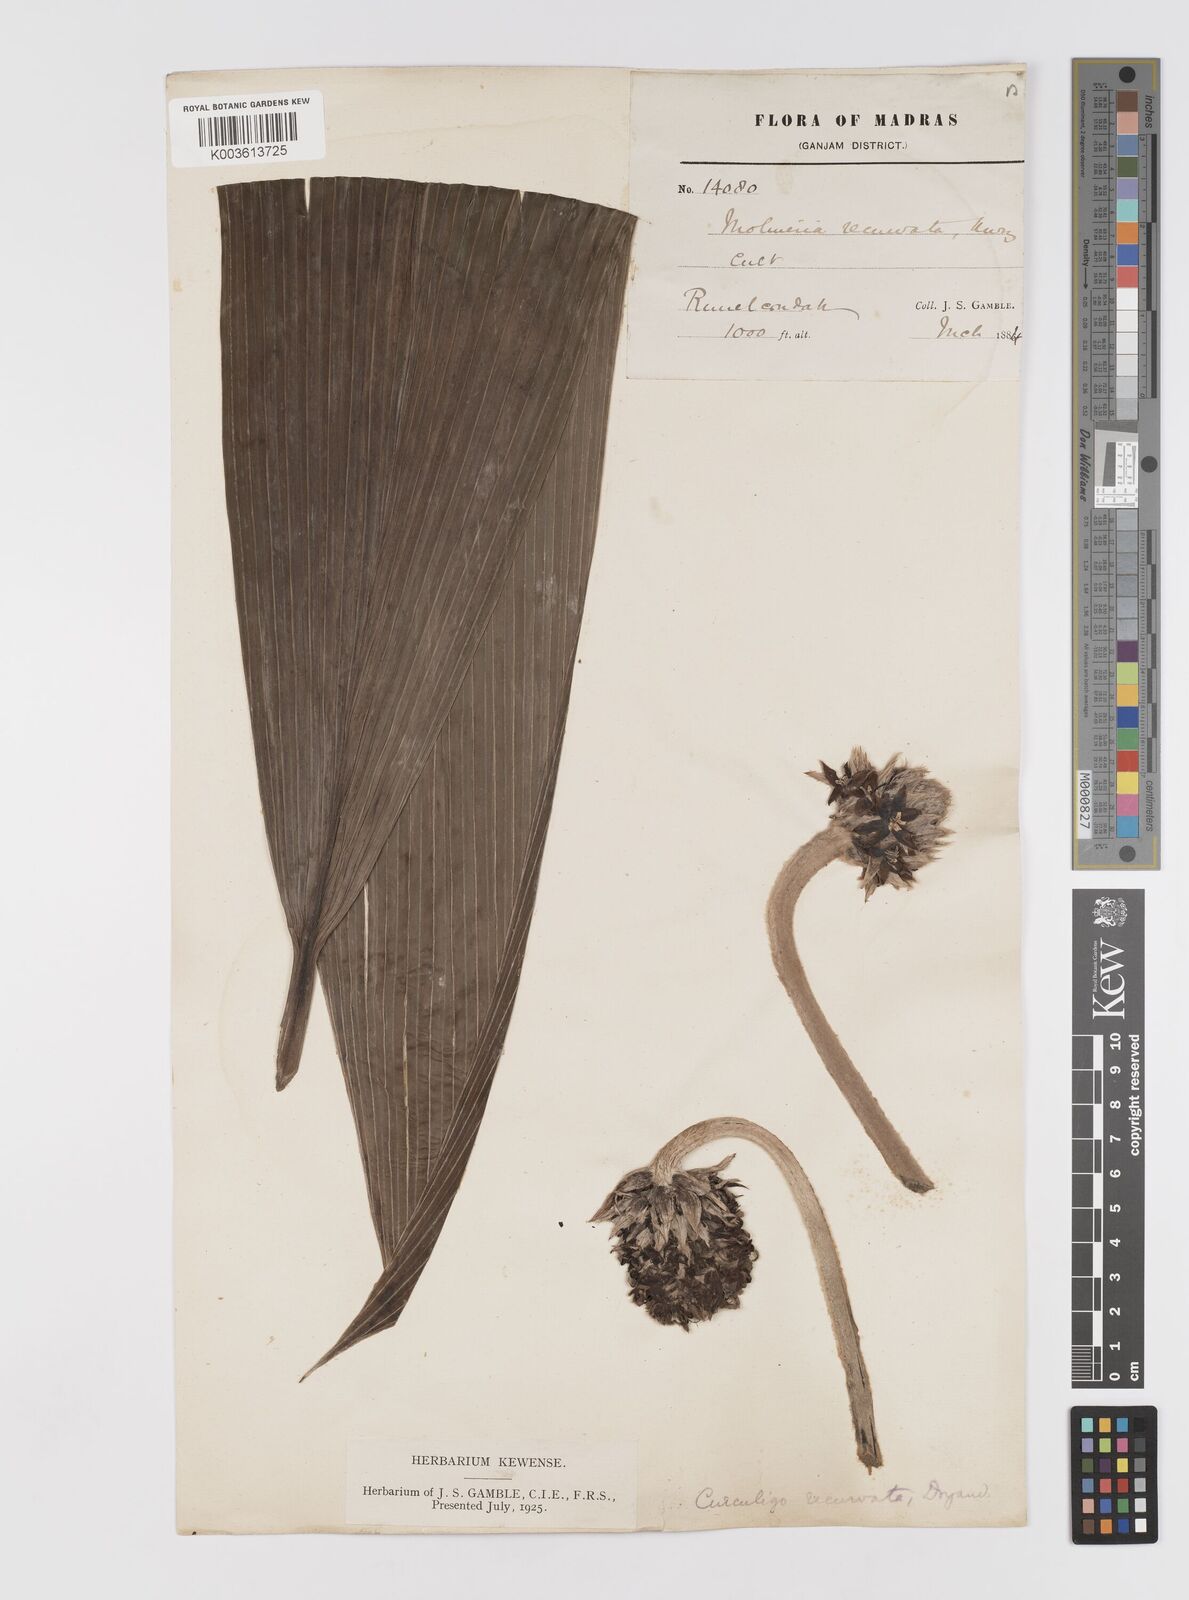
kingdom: Plantae
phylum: Tracheophyta
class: Liliopsida
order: Asparagales
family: Hypoxidaceae
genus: Curculigo
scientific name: Curculigo capitulata
